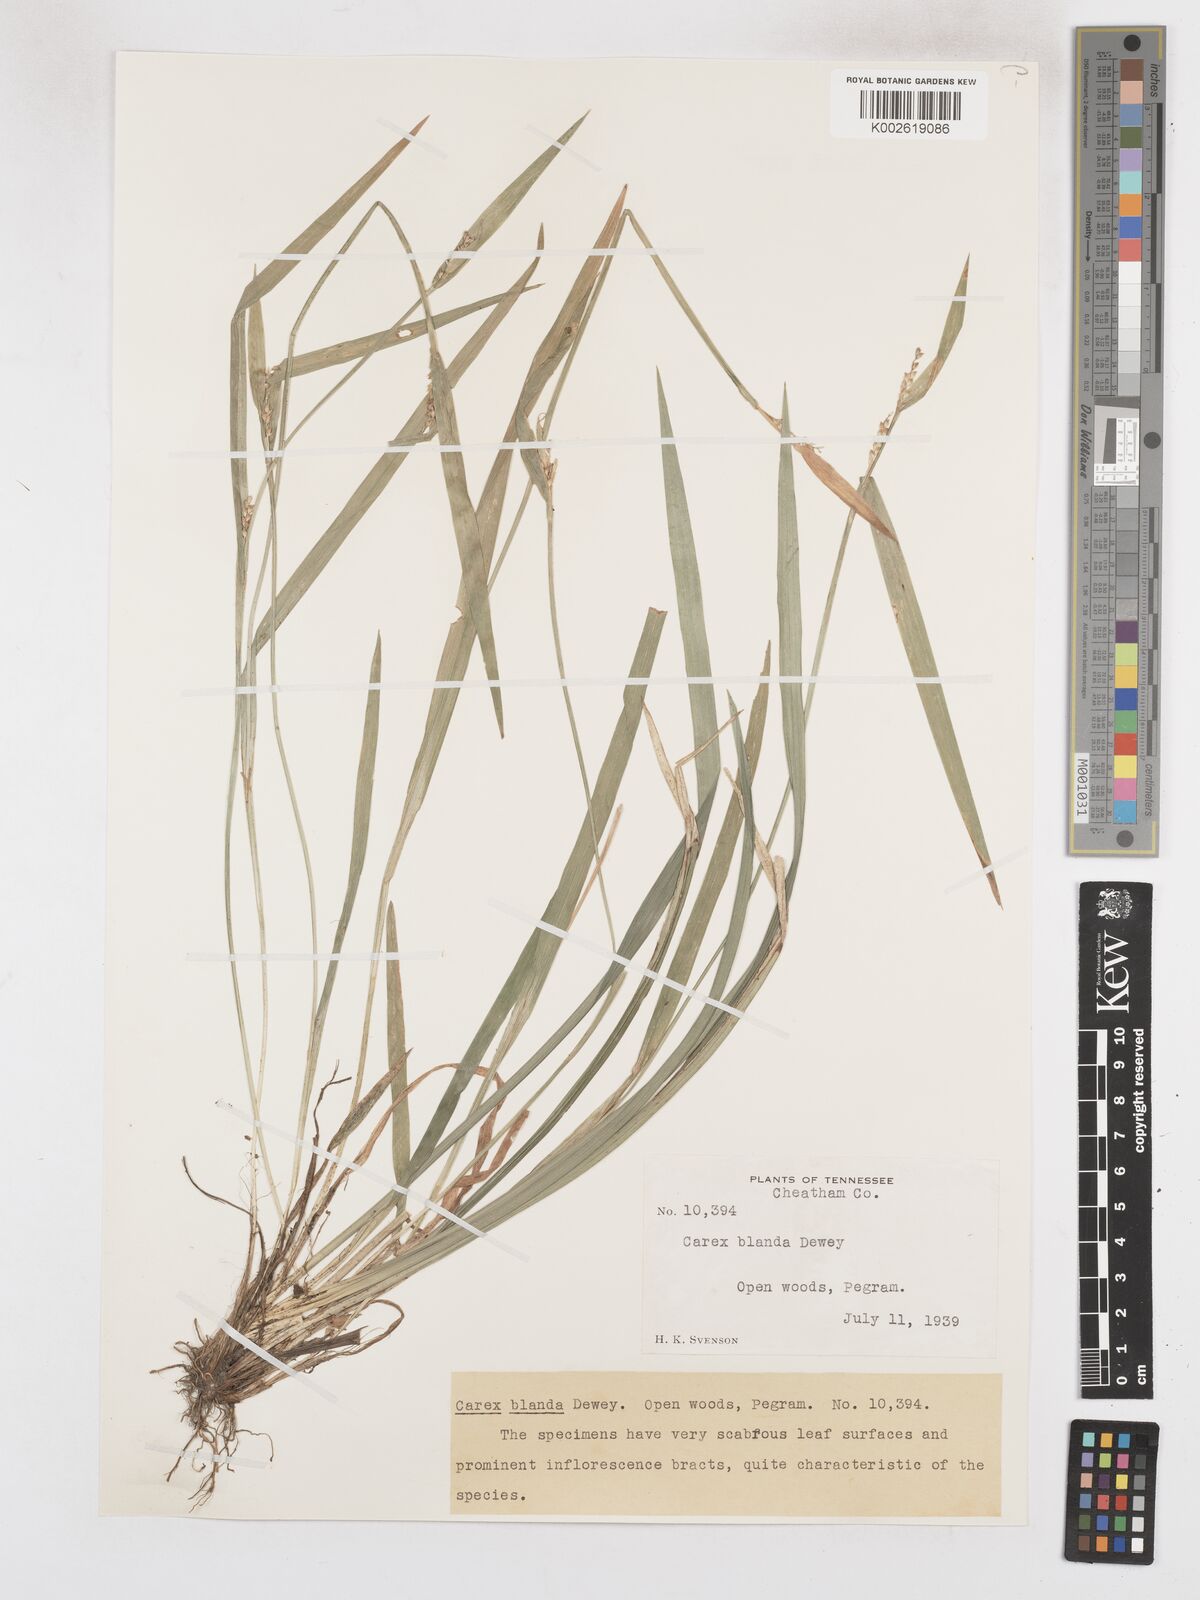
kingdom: Plantae
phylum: Tracheophyta
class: Liliopsida
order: Poales
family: Cyperaceae
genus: Carex
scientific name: Carex blanda
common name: Bland sedge
